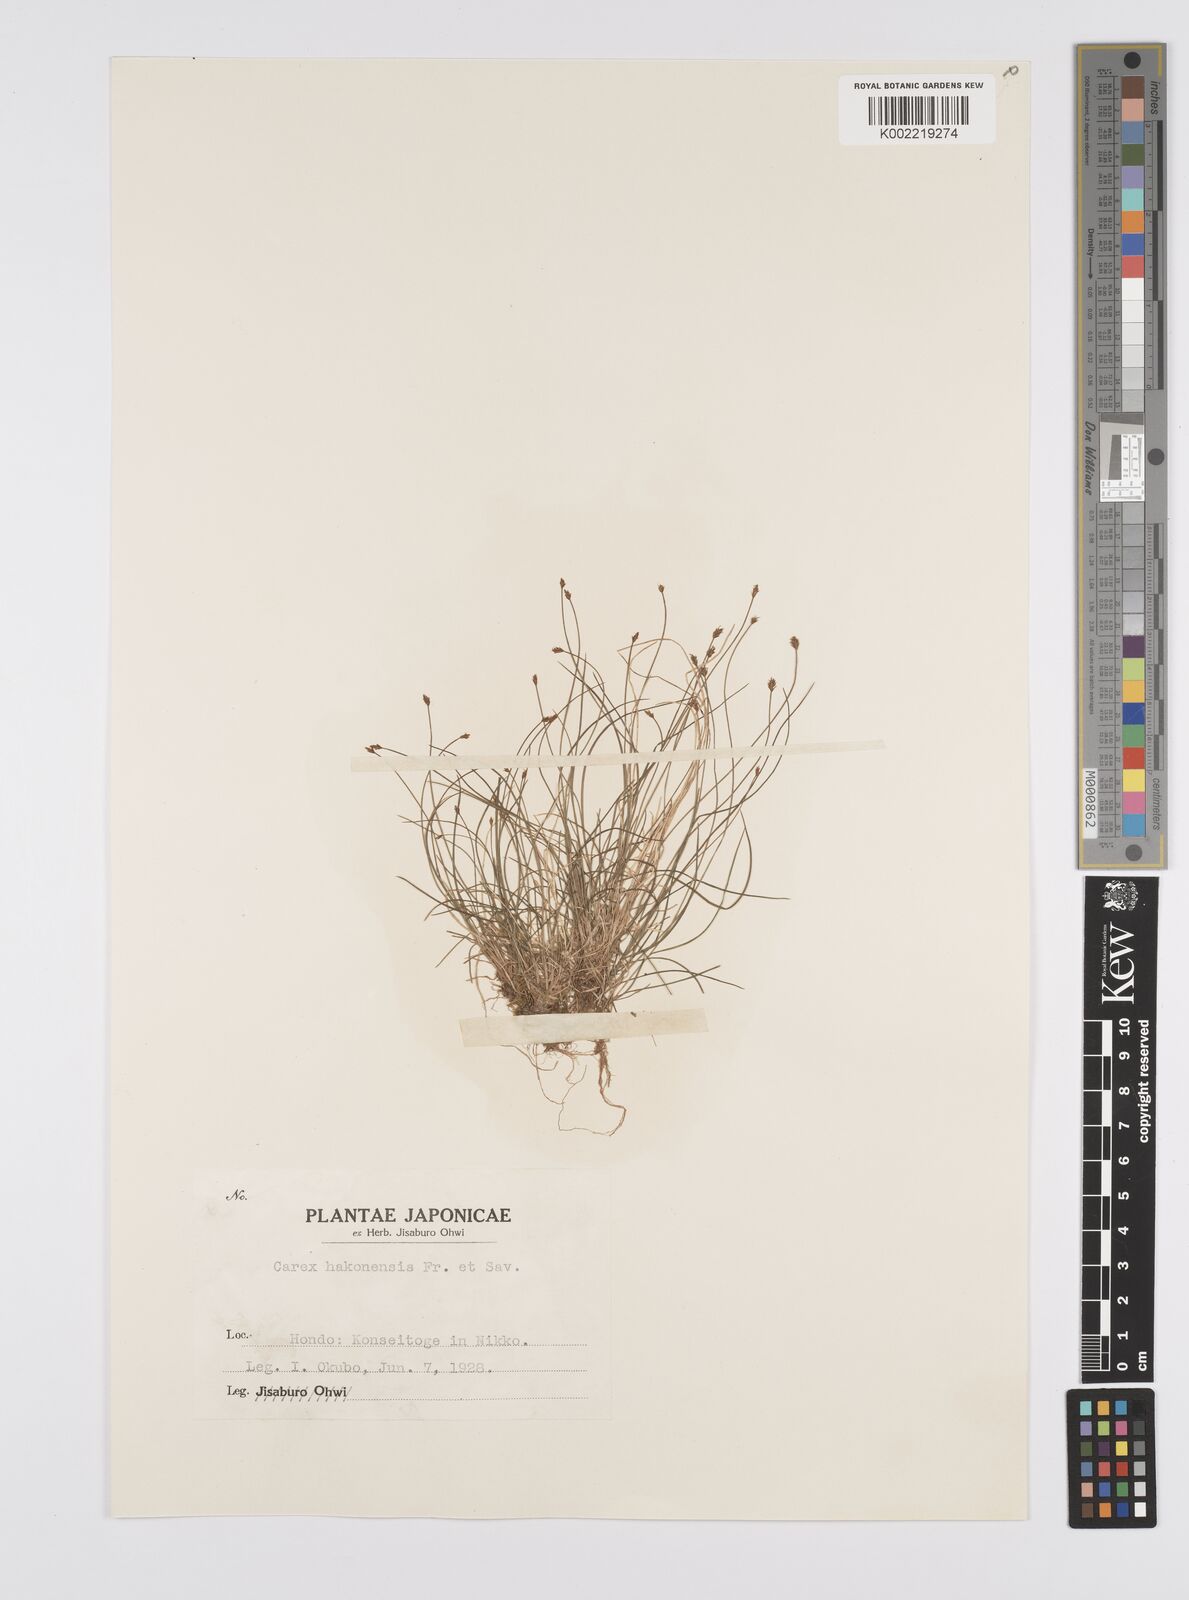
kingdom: Plantae
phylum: Tracheophyta
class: Liliopsida
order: Poales
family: Cyperaceae
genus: Carex
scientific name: Carex onoei
